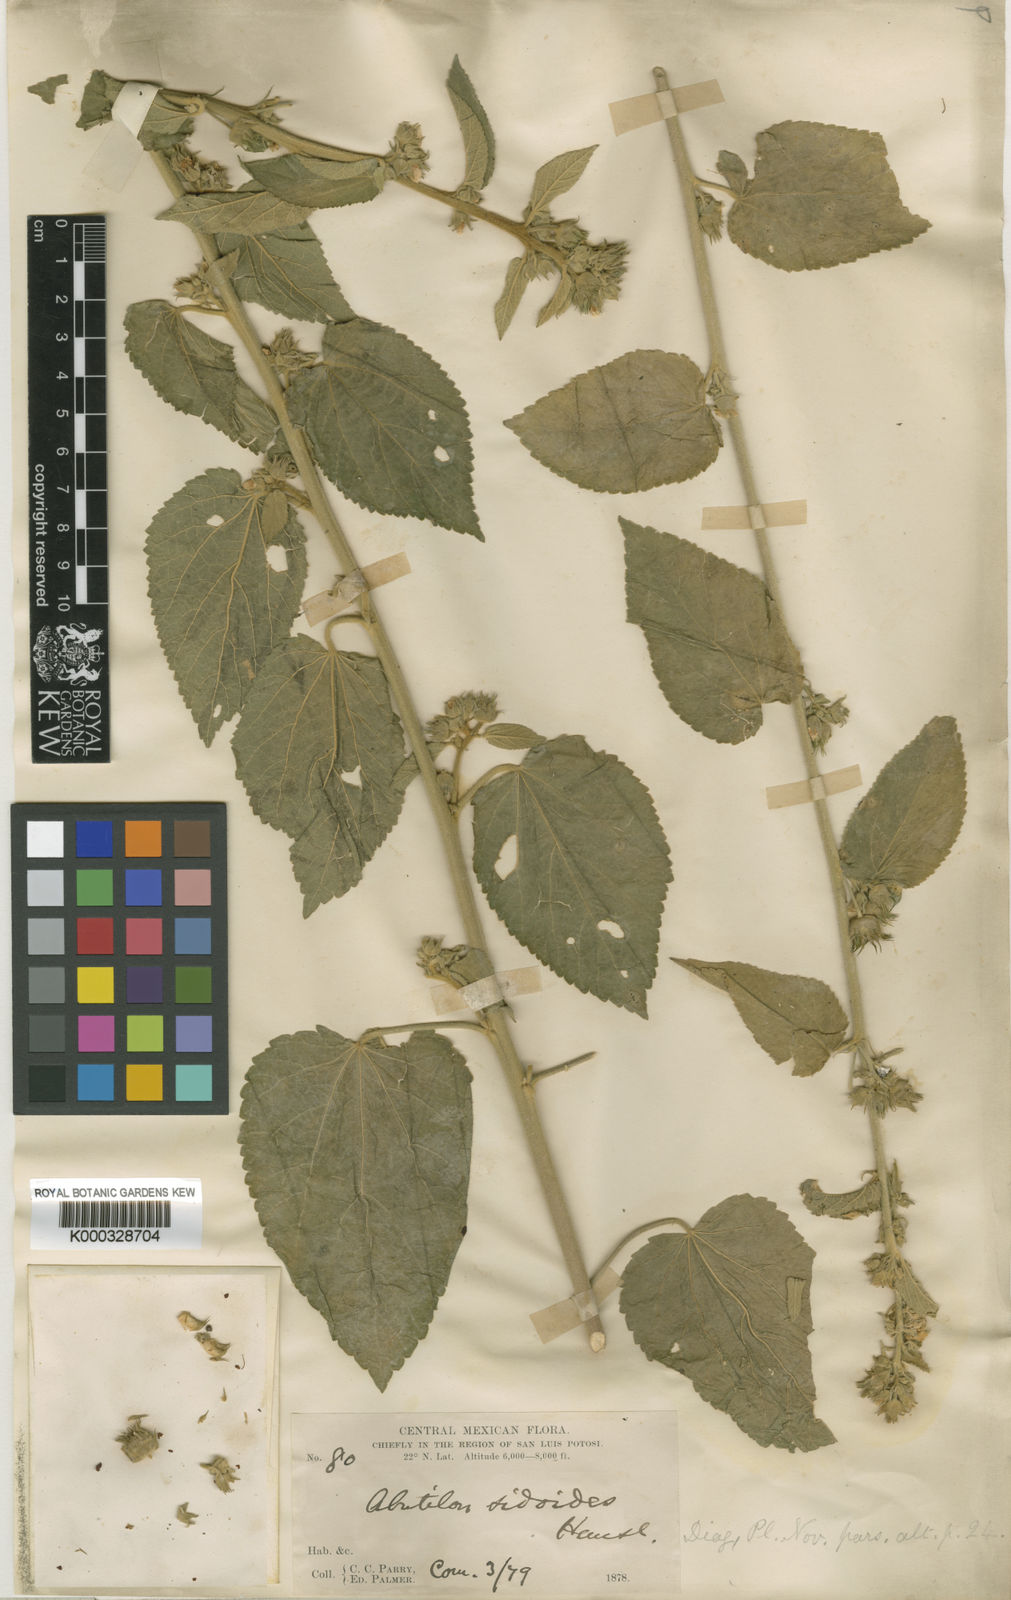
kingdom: Plantae
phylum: Tracheophyta
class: Magnoliopsida
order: Malvales
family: Malvaceae
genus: Pseudabutilon
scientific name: Pseudabutilon ellipticum
